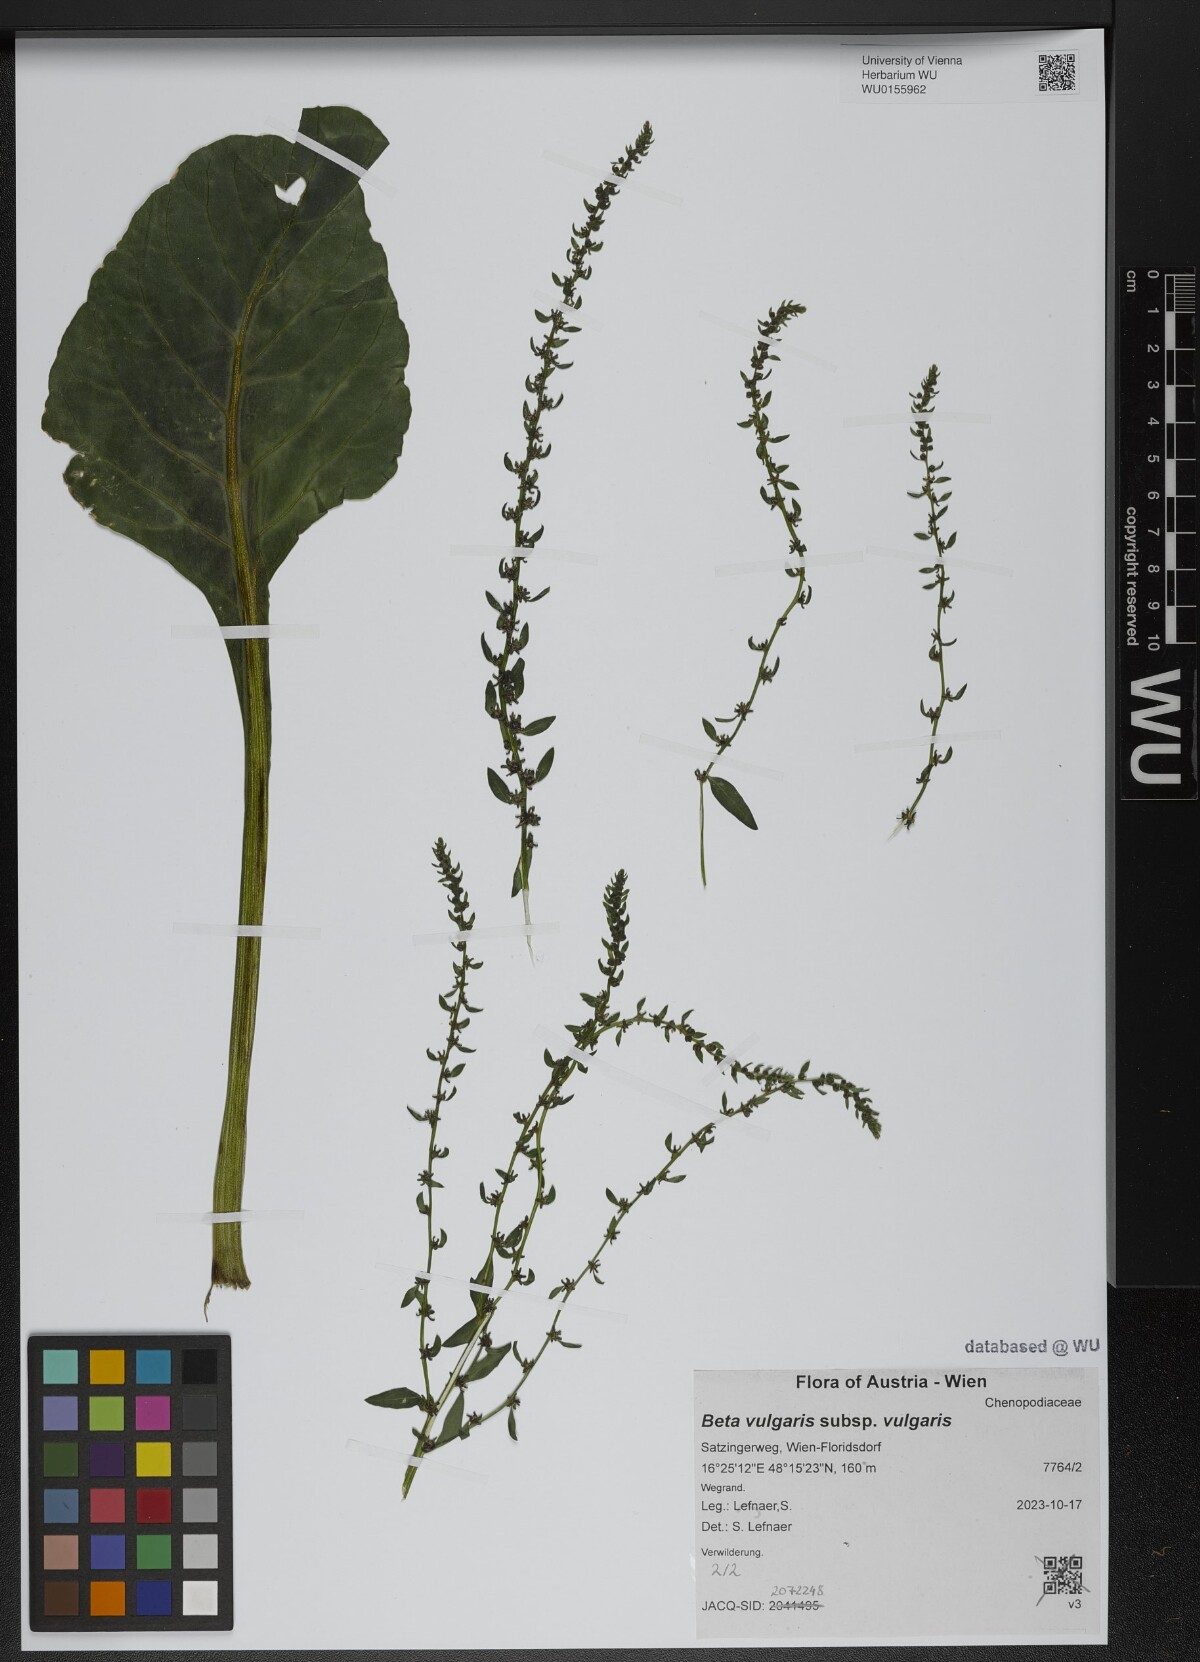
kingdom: Plantae
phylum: Tracheophyta
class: Magnoliopsida
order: Caryophyllales
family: Amaranthaceae
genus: Beta
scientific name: Beta vulgaris
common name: Beet
